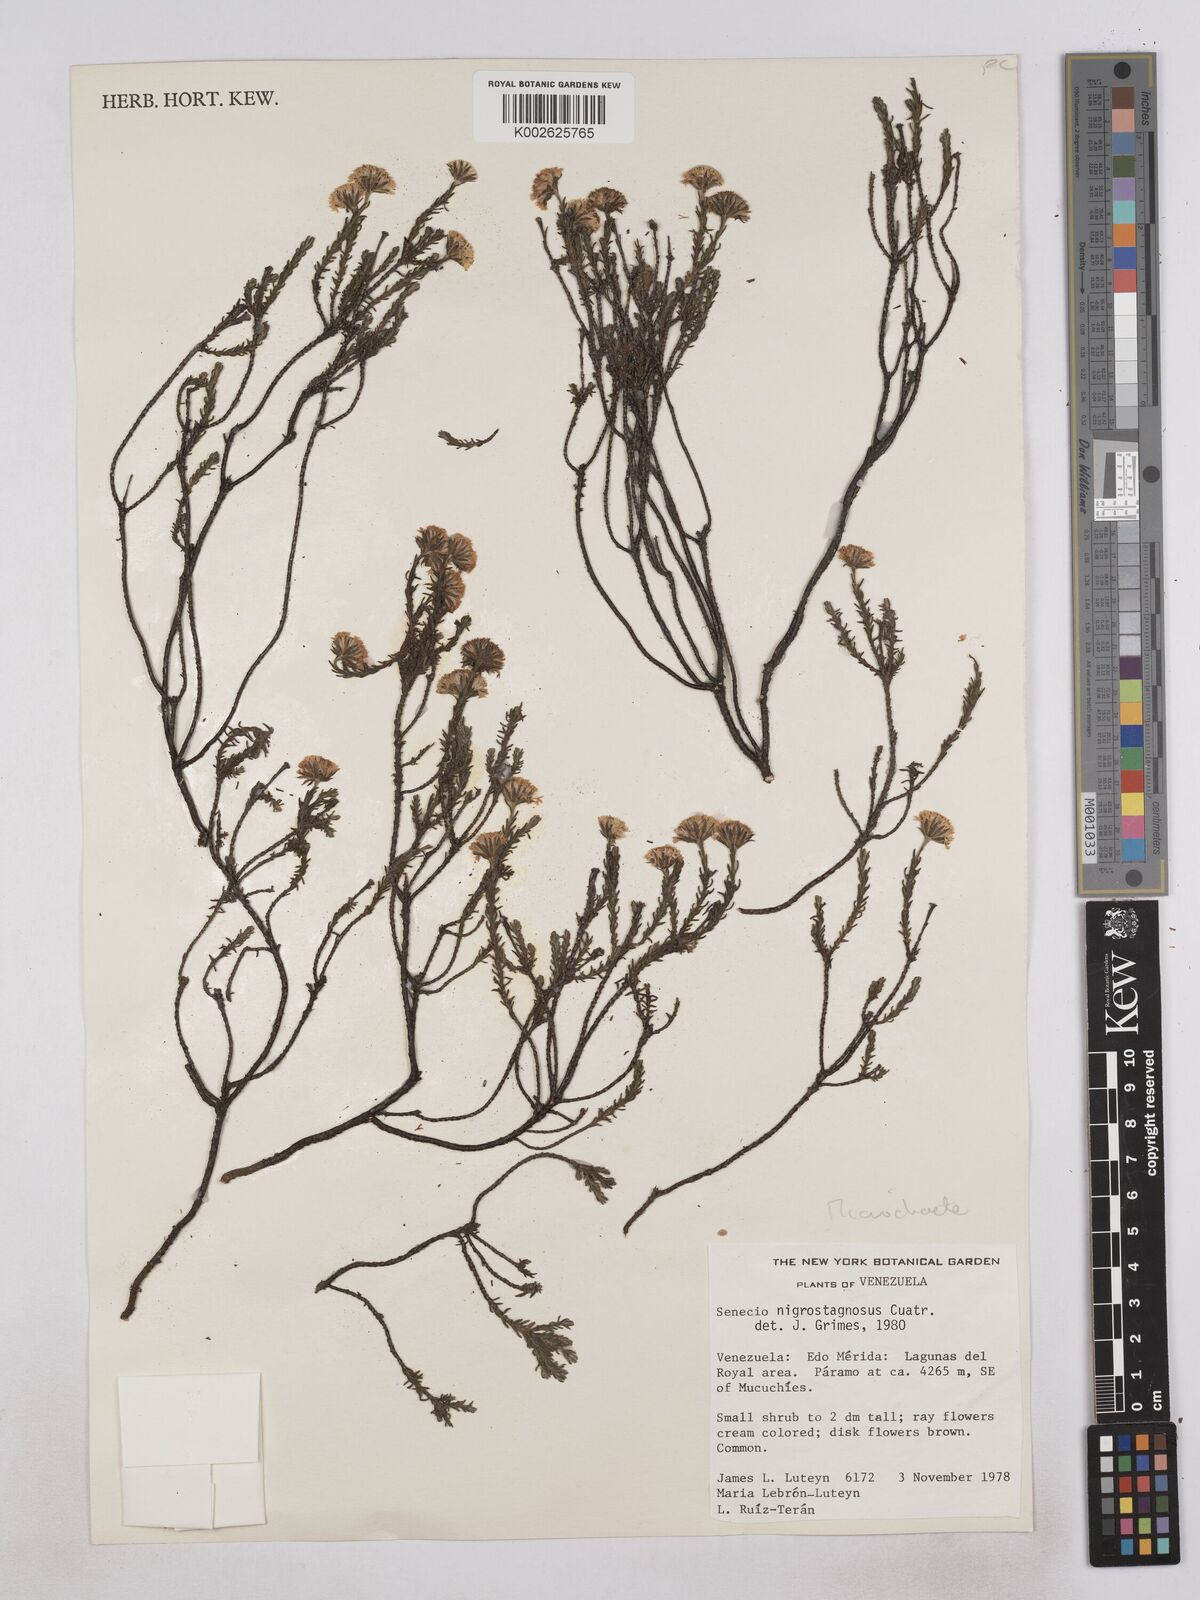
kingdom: Plantae
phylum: Tracheophyta
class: Magnoliopsida
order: Asterales
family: Asteraceae
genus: Monticalia
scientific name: Monticalia
